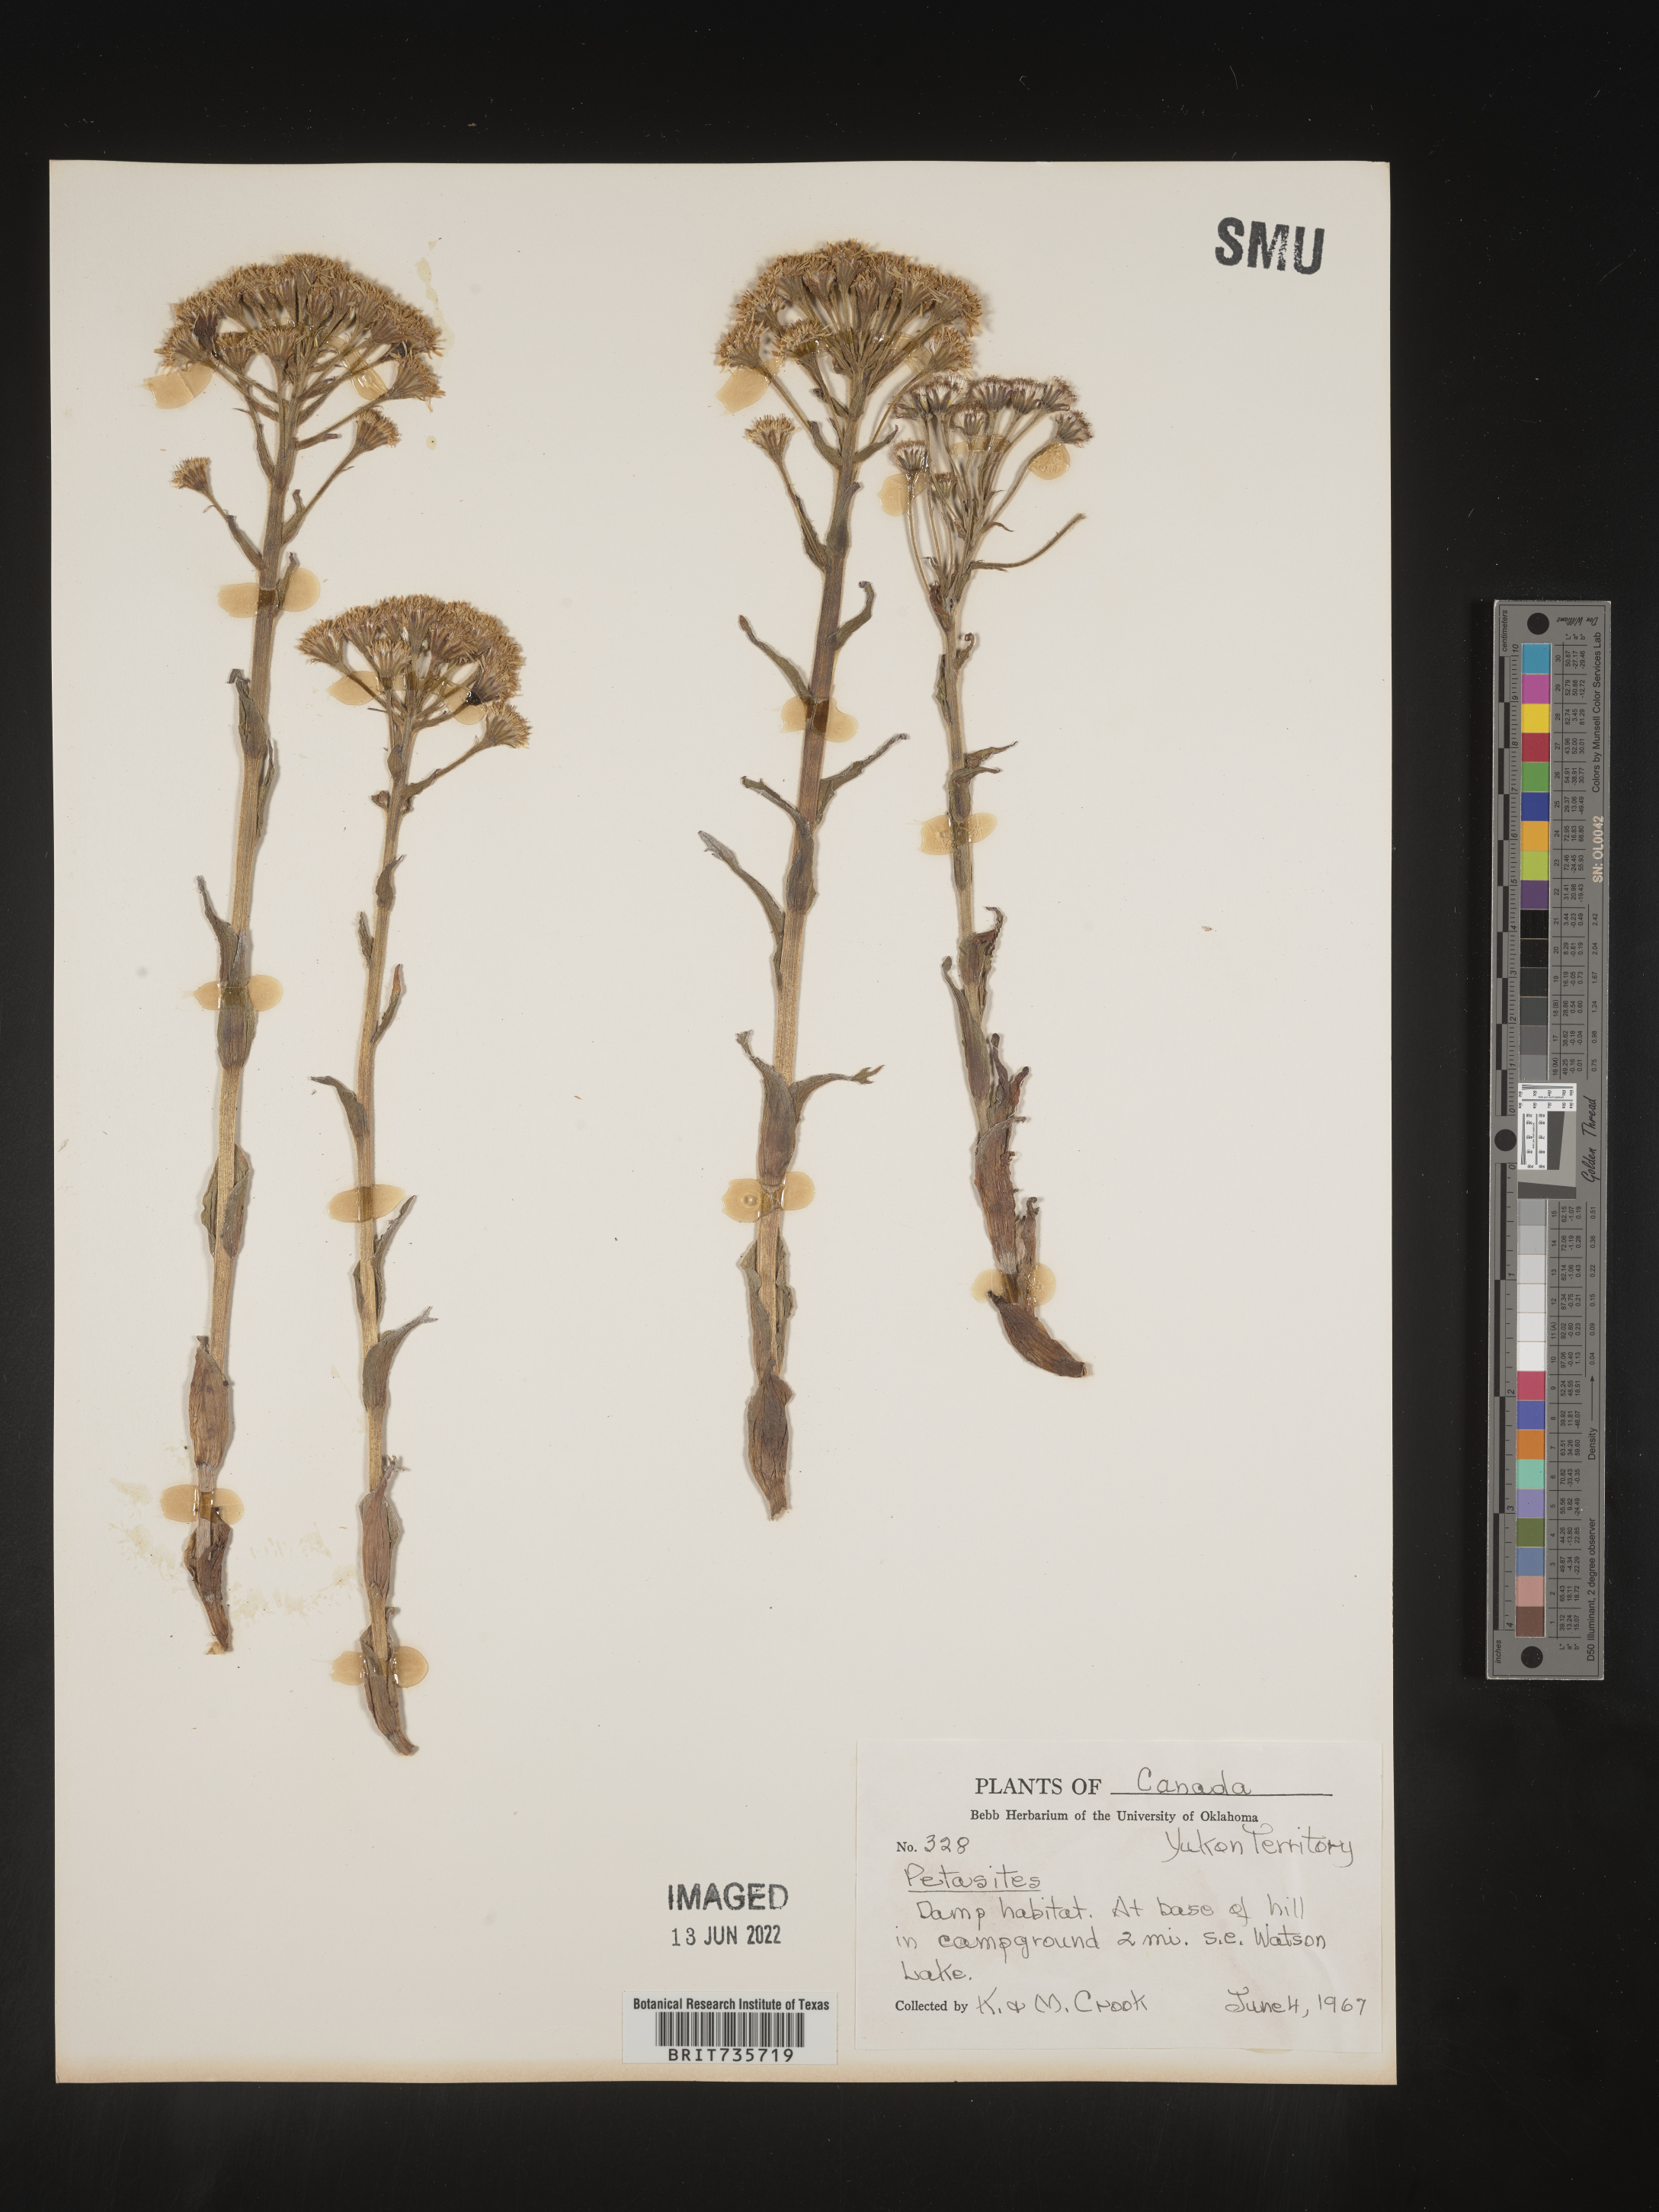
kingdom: Plantae
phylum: Tracheophyta
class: Magnoliopsida
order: Asterales
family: Asteraceae
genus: Petasites
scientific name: Petasites frigidus
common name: Arctic butterbur
